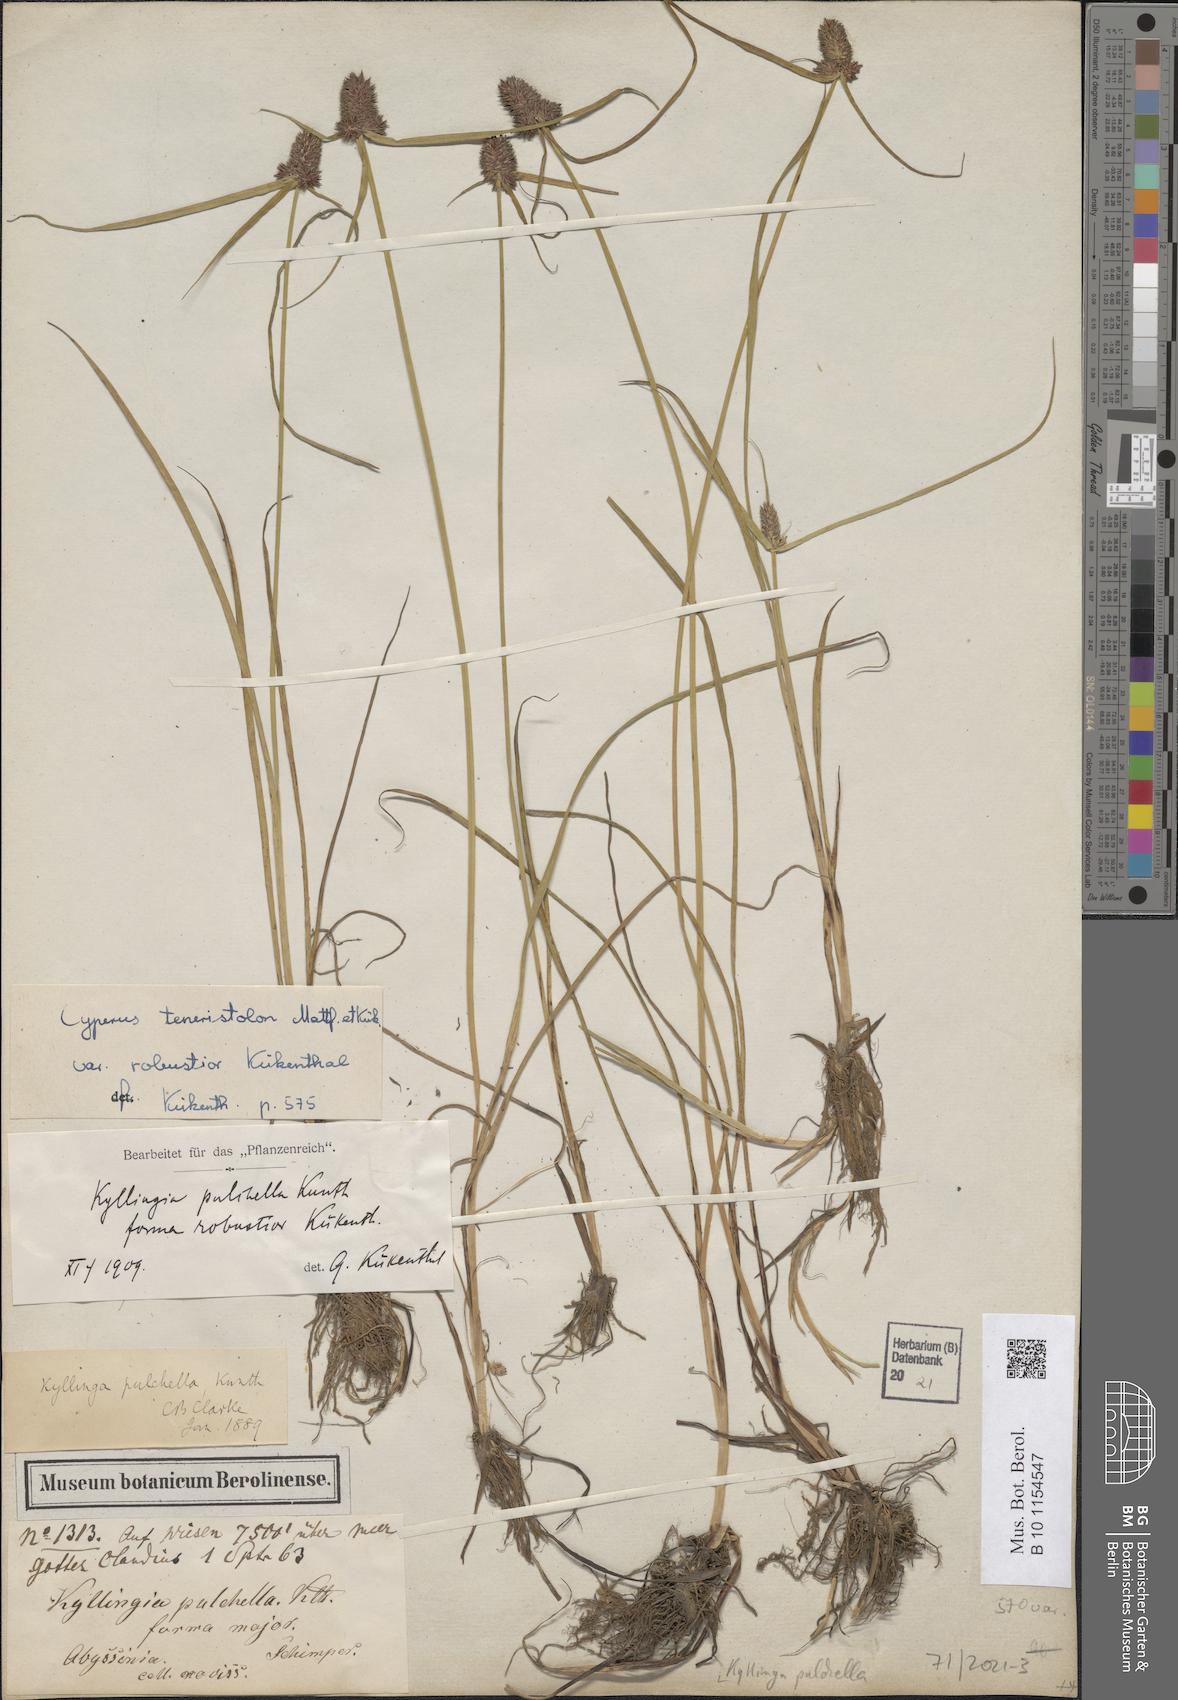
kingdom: Plantae
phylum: Tracheophyta
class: Liliopsida
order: Poales
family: Cyperaceae
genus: Cyperus
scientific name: Cyperus bracheilema
